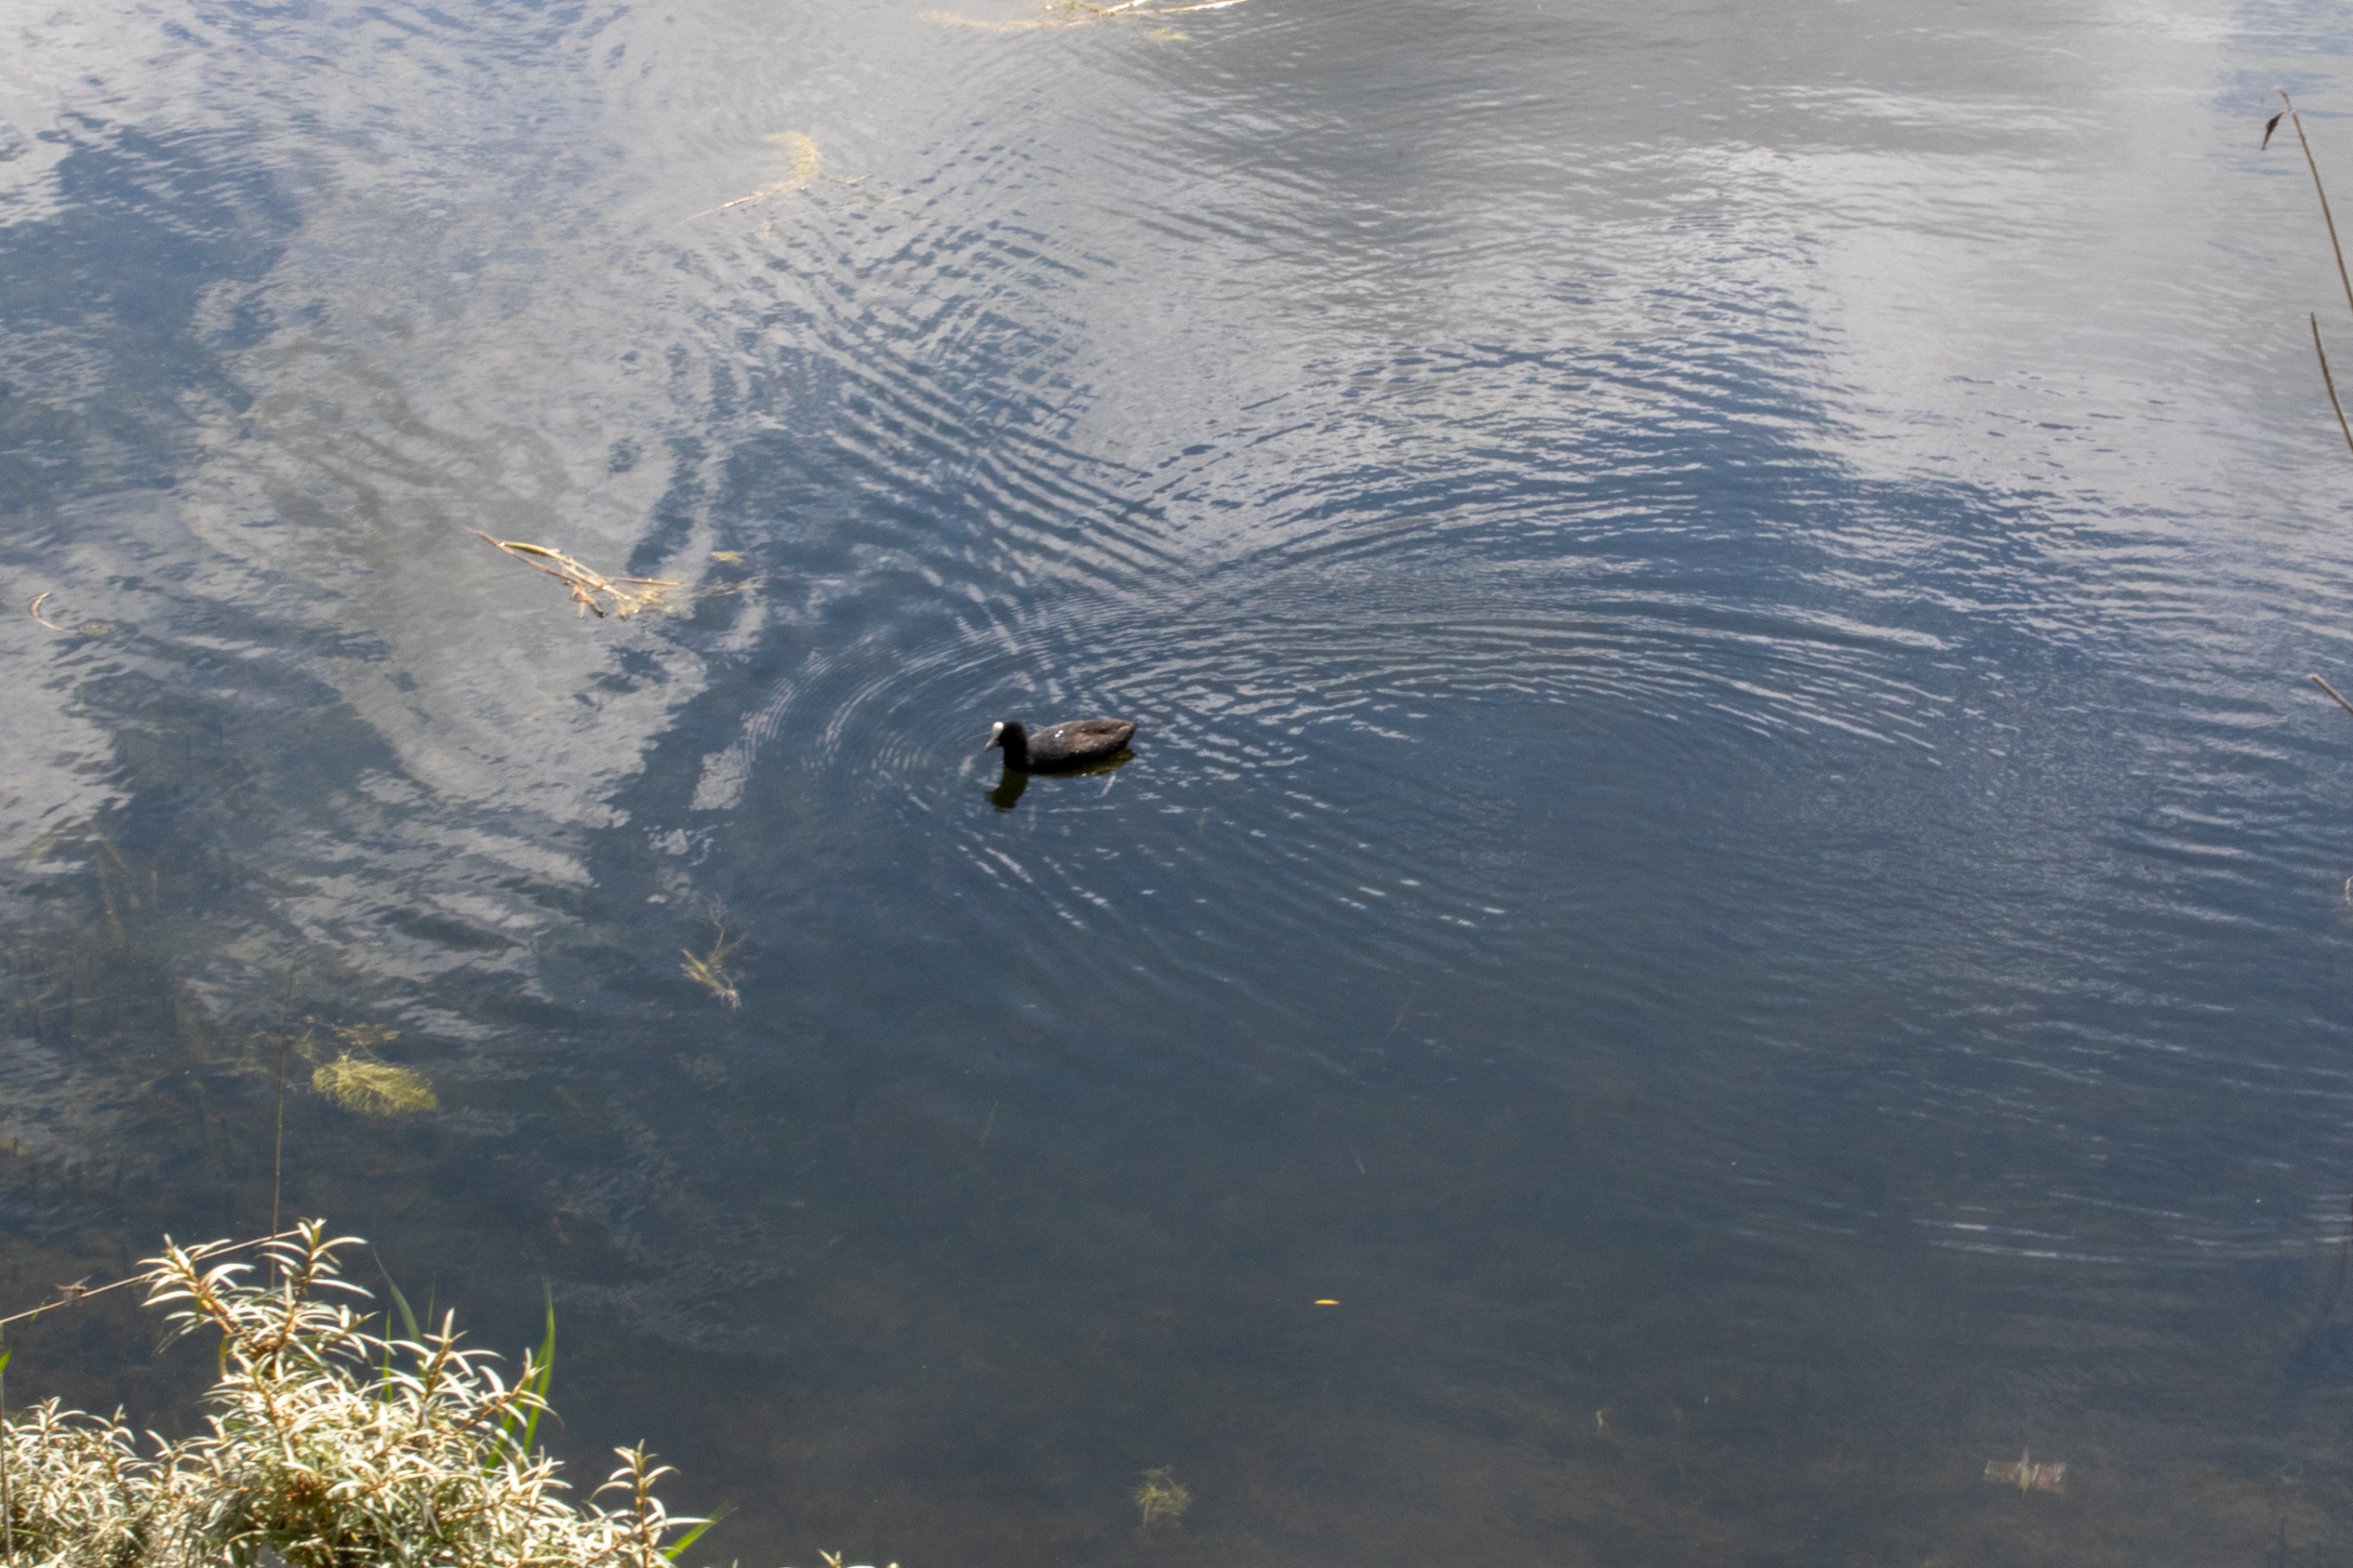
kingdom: Animalia
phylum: Chordata
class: Aves
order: Gruiformes
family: Rallidae
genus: Fulica
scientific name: Fulica atra
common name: Blishøne
